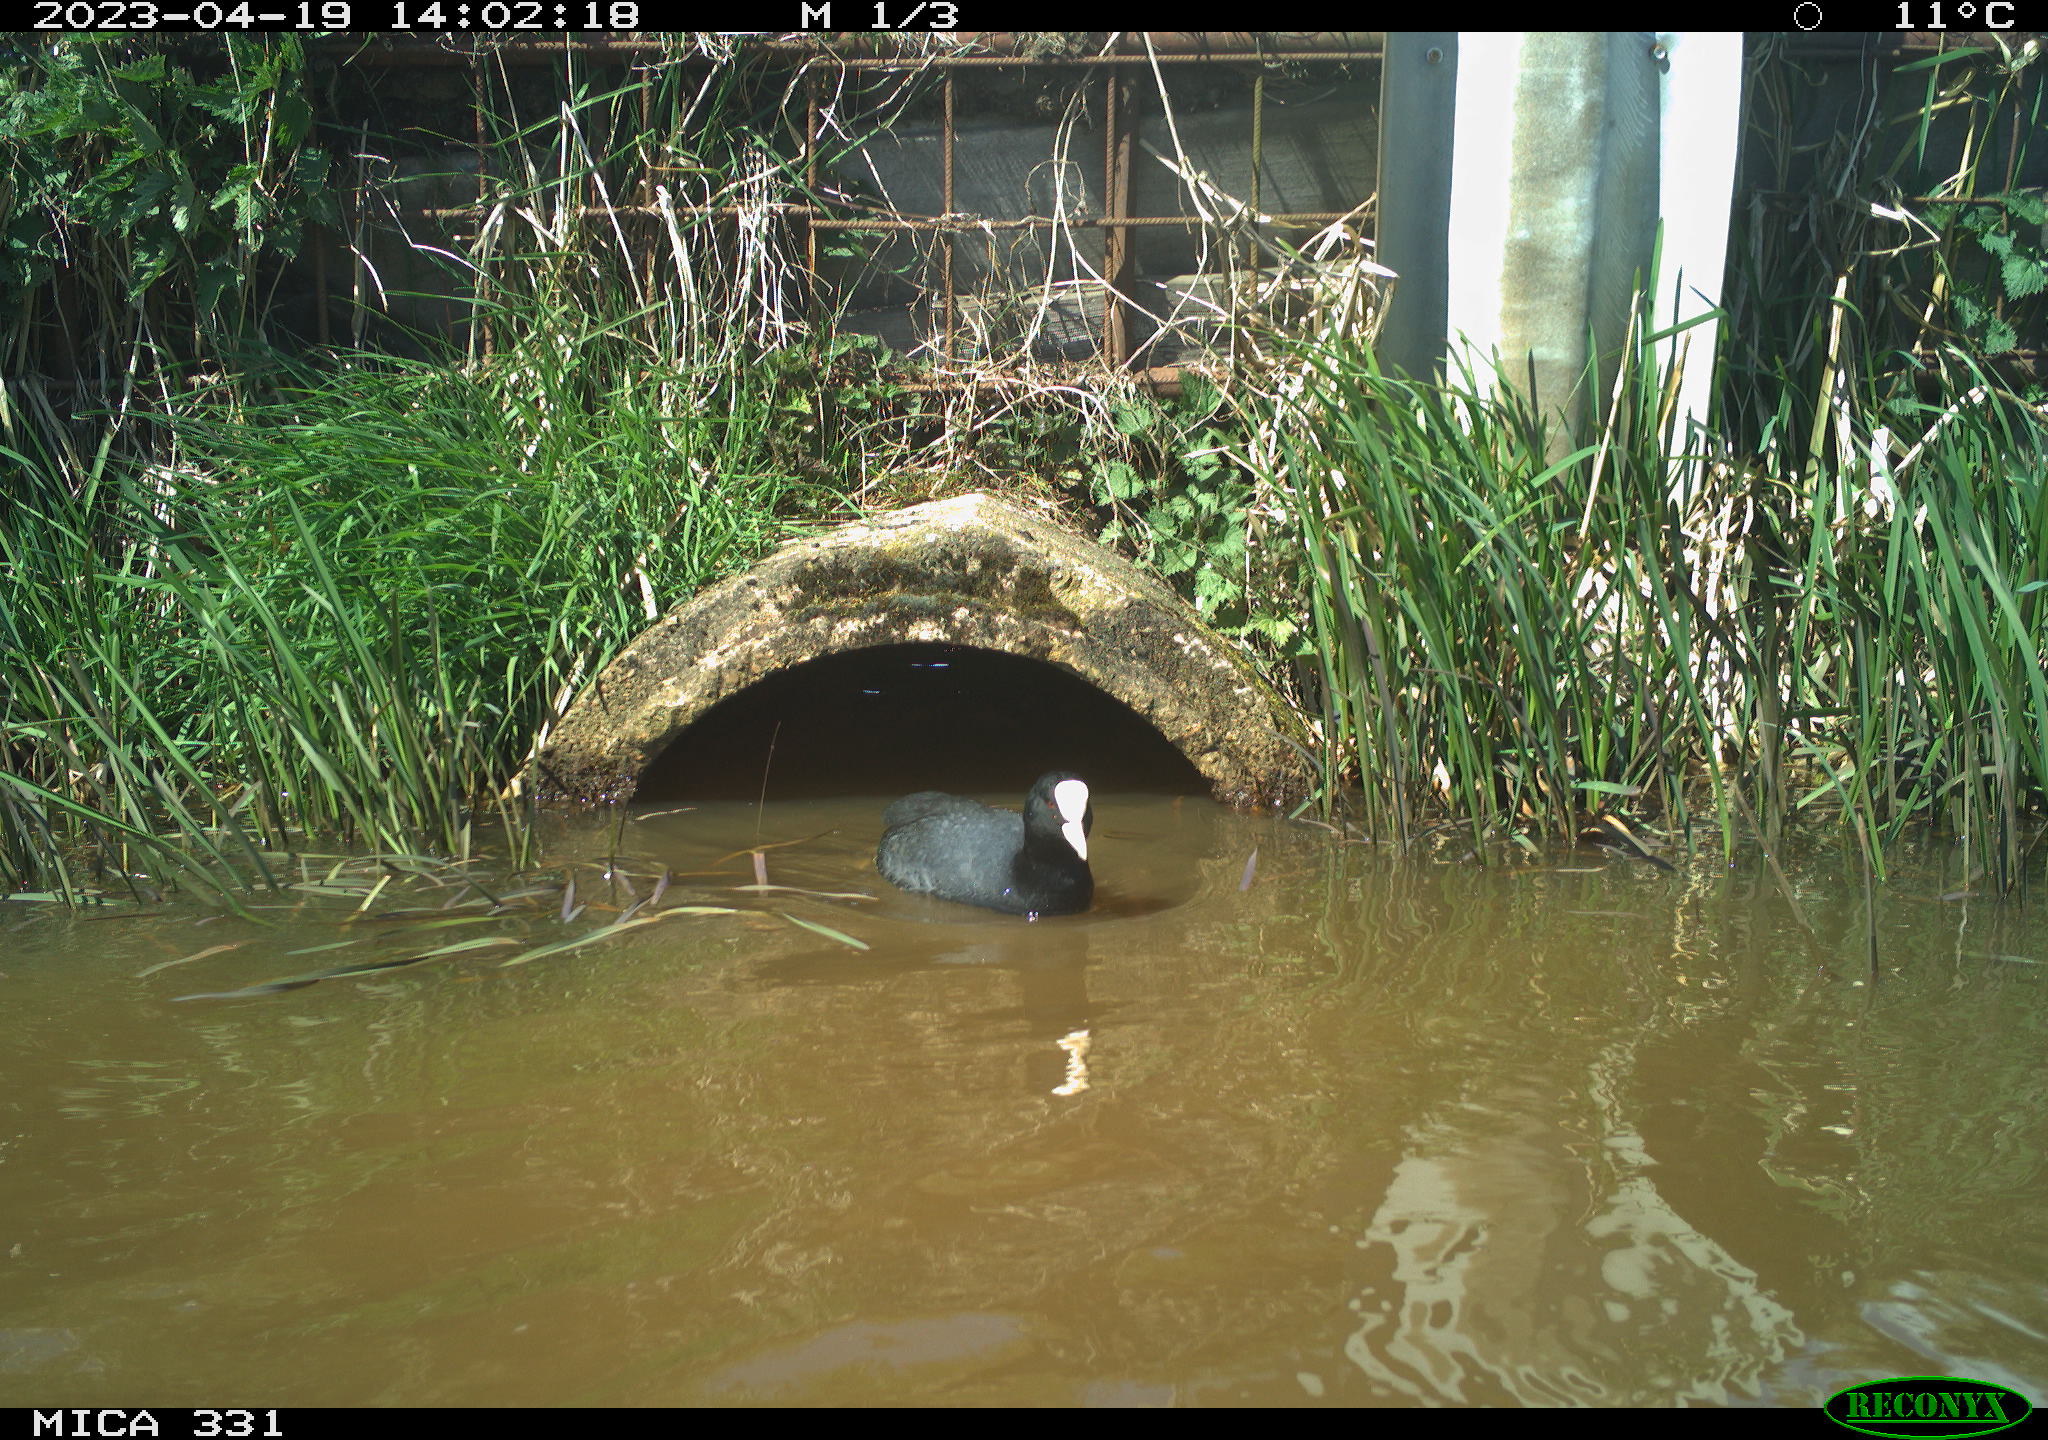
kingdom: Animalia
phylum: Chordata
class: Aves
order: Gruiformes
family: Rallidae
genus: Gallinula
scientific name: Gallinula chloropus
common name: Common moorhen
